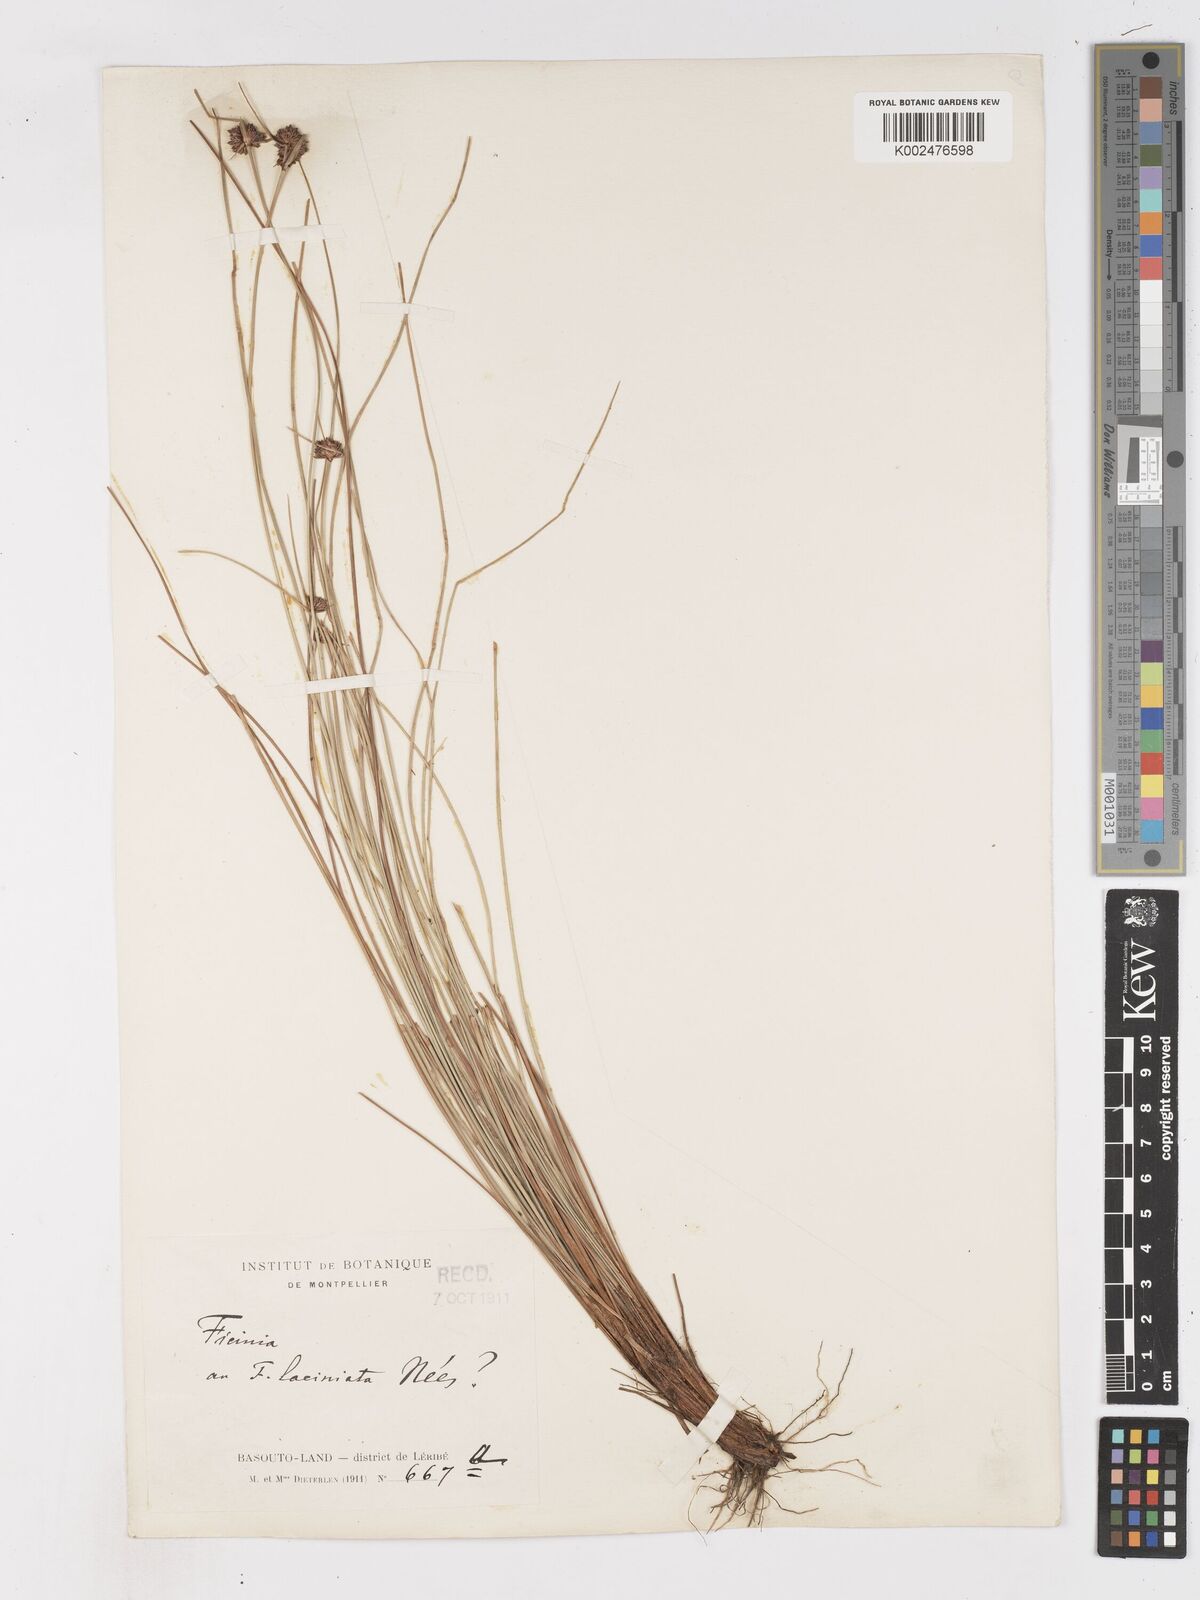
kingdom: Plantae
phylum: Tracheophyta
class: Liliopsida
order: Poales
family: Cyperaceae
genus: Ficinia
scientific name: Ficinia
